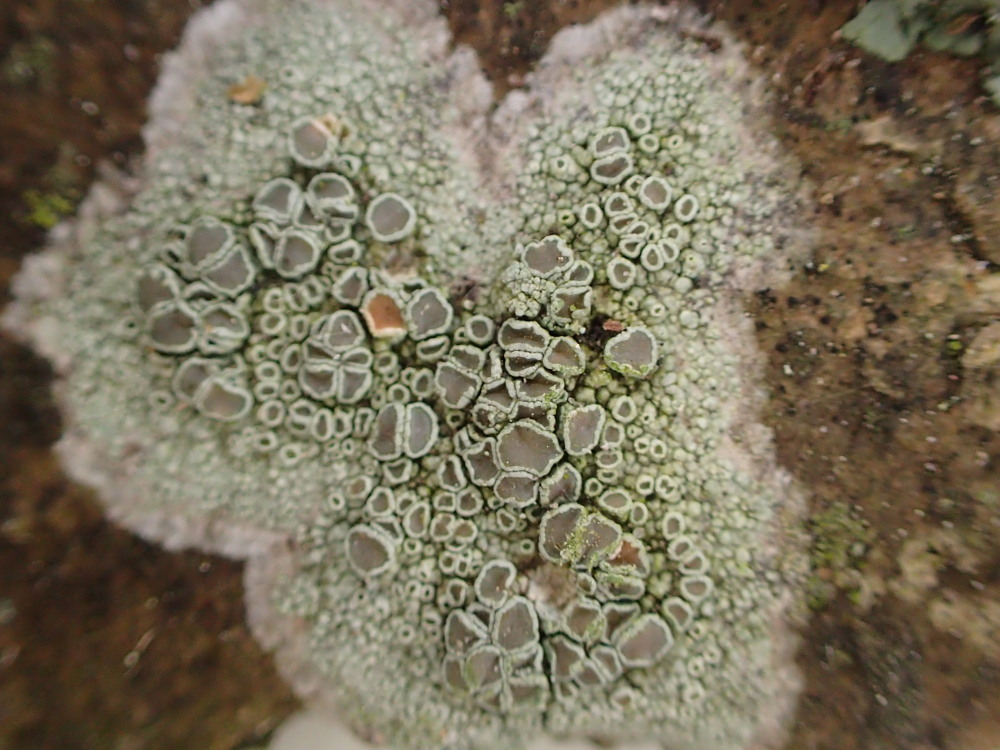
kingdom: Fungi
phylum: Ascomycota
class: Lecanoromycetes
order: Lecanorales
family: Lecanoraceae
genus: Lecanora
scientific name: Lecanora chlarotera
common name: brun kantskivelav
